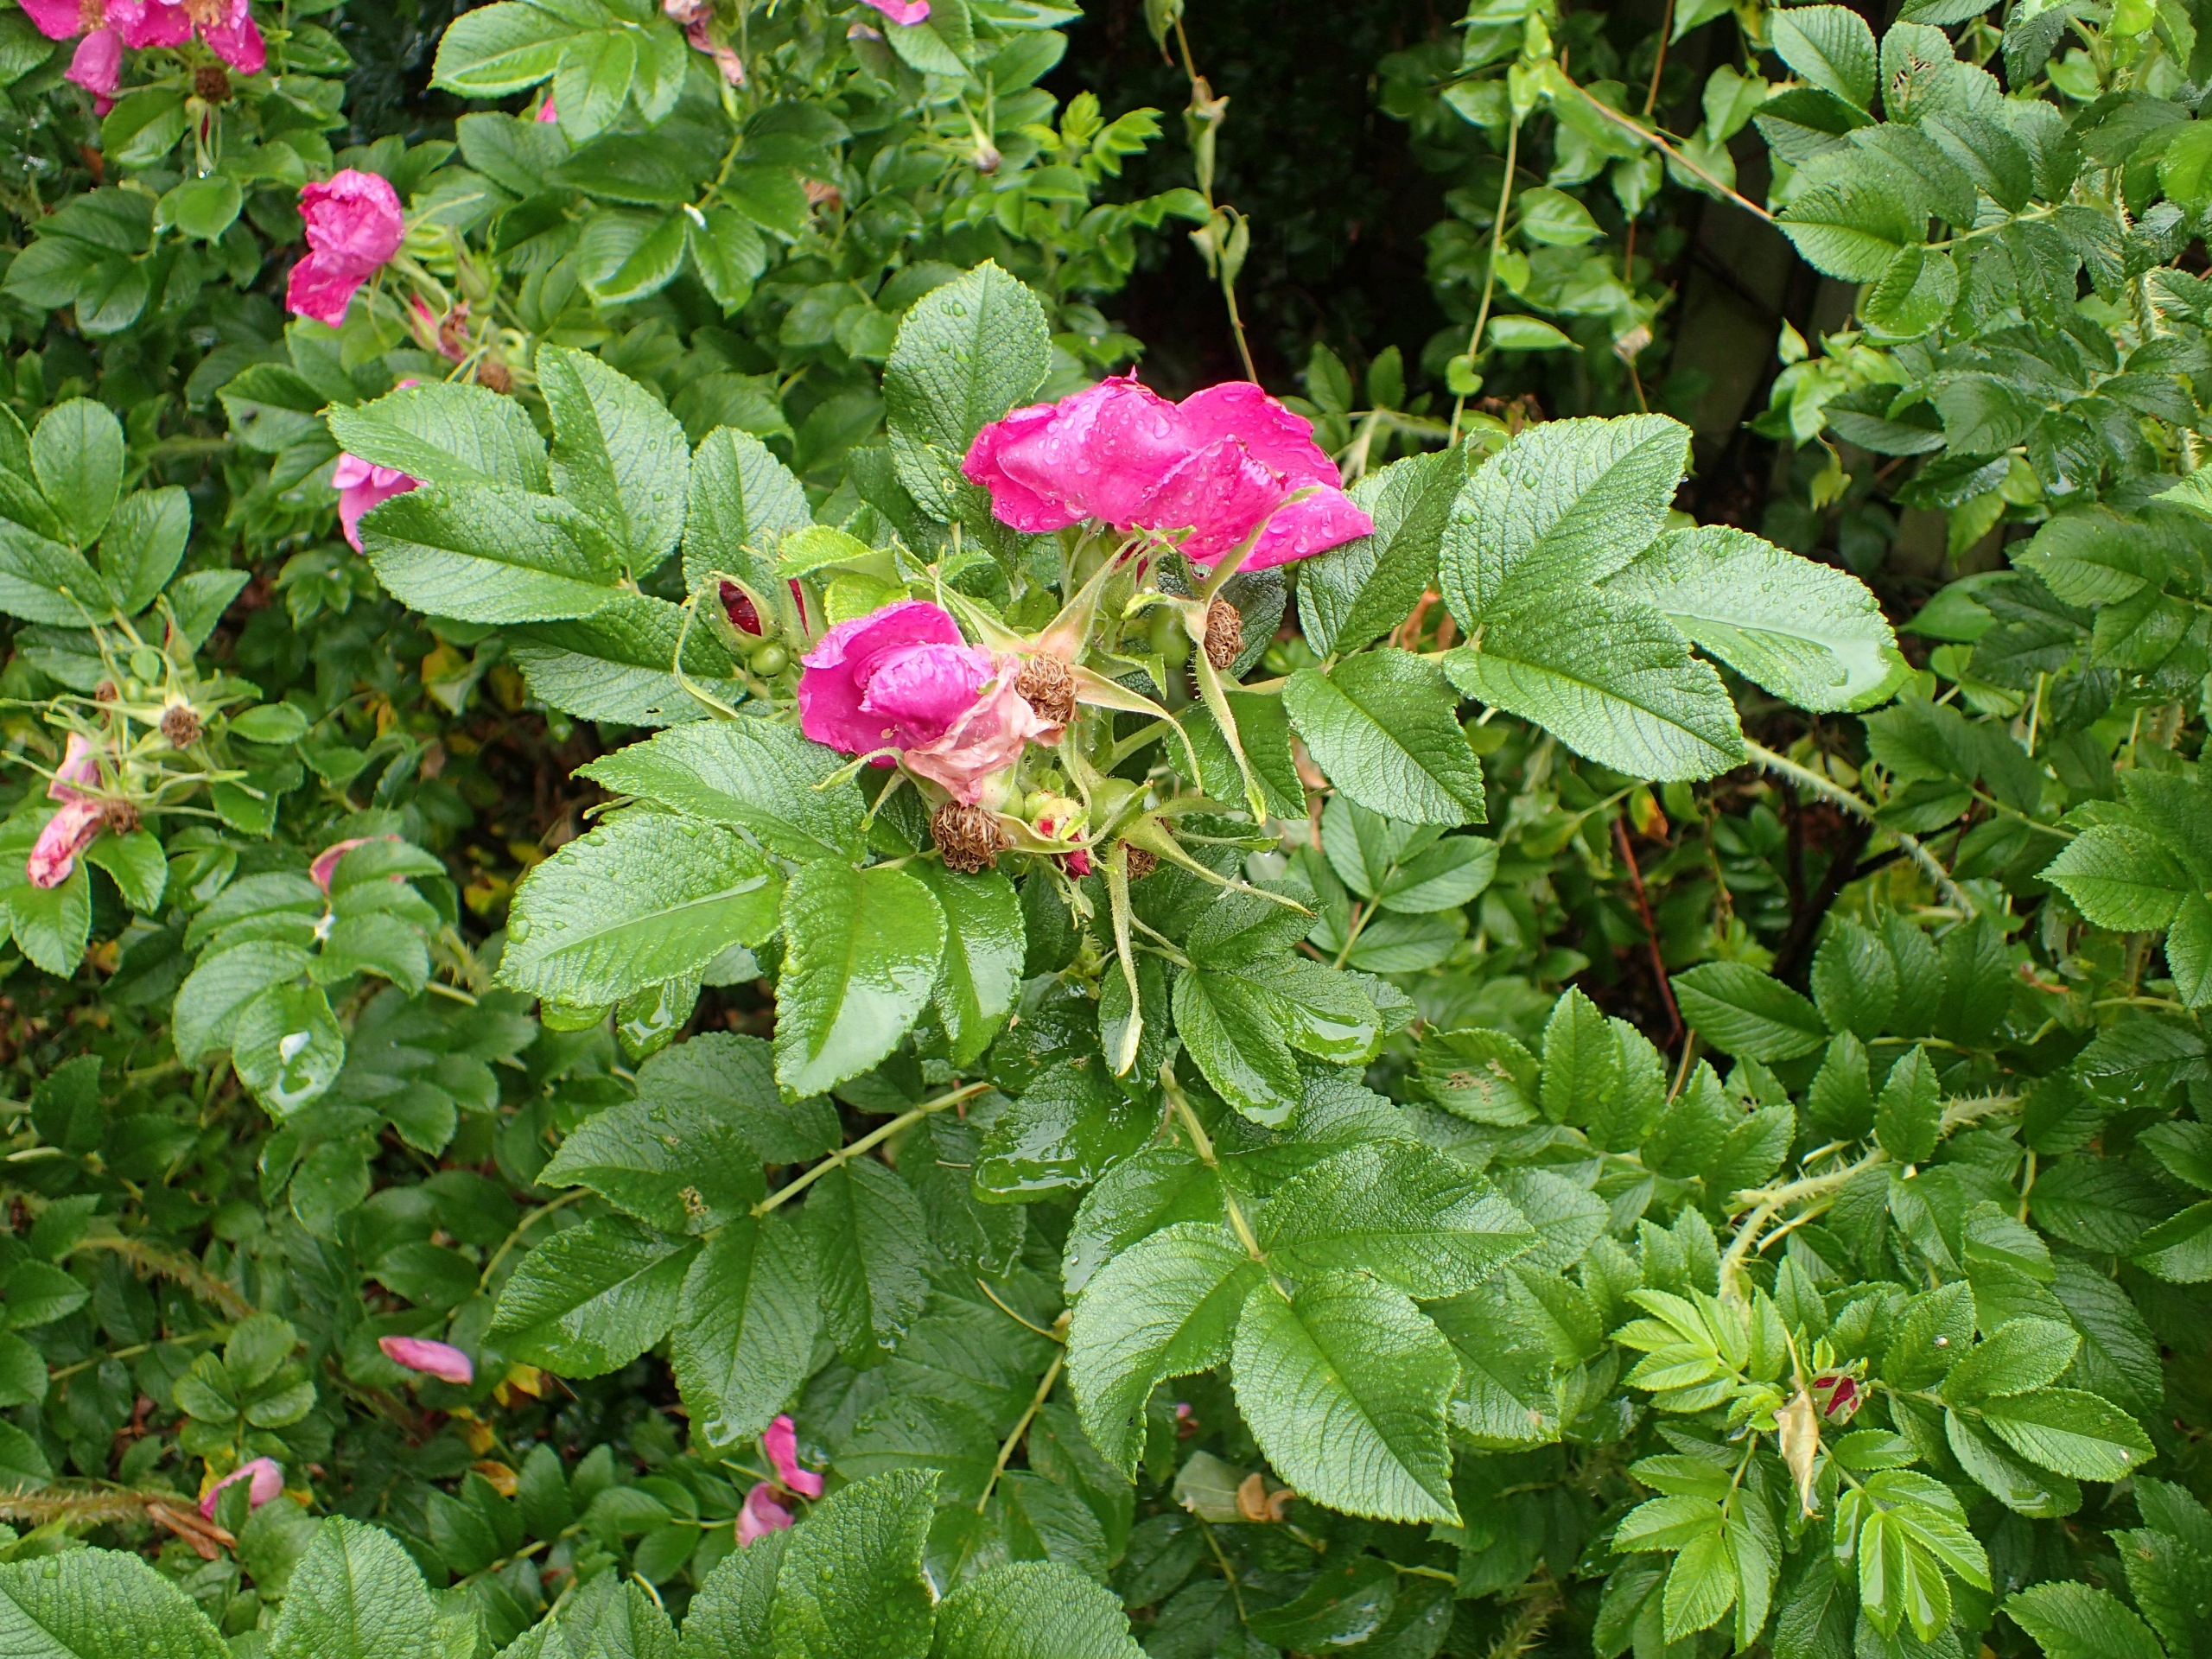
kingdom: Plantae
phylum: Tracheophyta
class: Magnoliopsida
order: Rosales
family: Rosaceae
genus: Rosa
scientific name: Rosa rugosa
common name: Rynket rose
